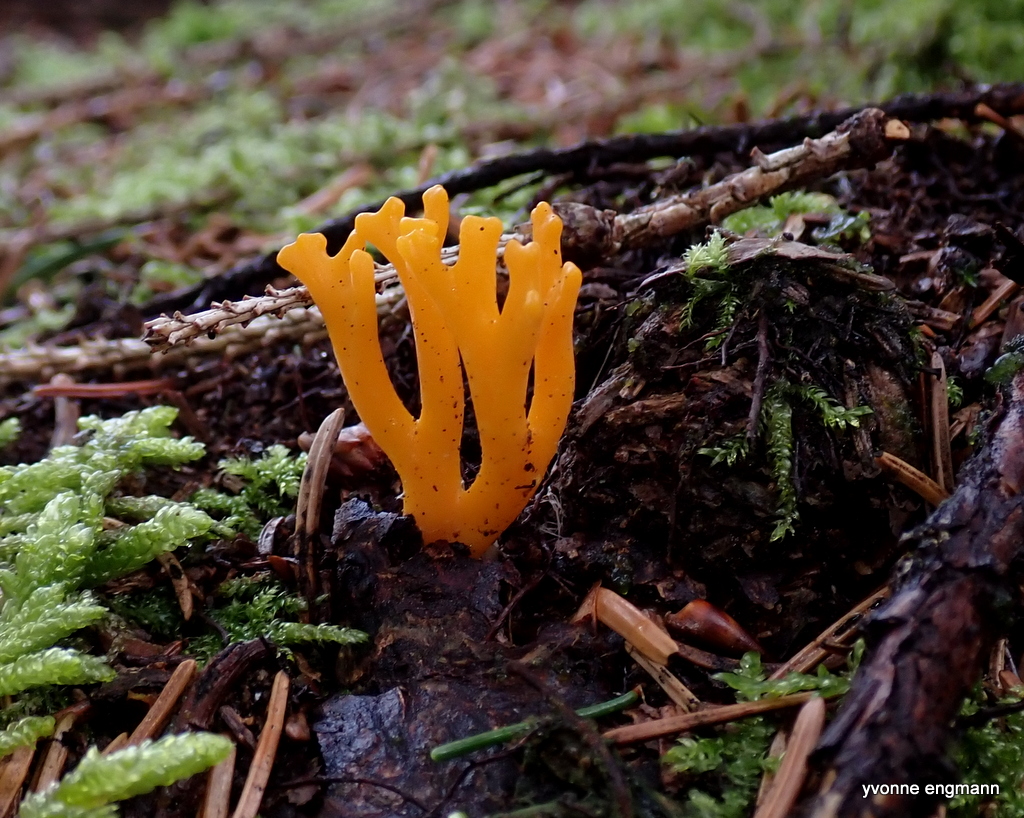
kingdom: Fungi
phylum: Basidiomycota
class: Dacrymycetes
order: Dacrymycetales
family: Dacrymycetaceae
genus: Calocera
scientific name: Calocera viscosa
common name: almindelig guldgaffel
